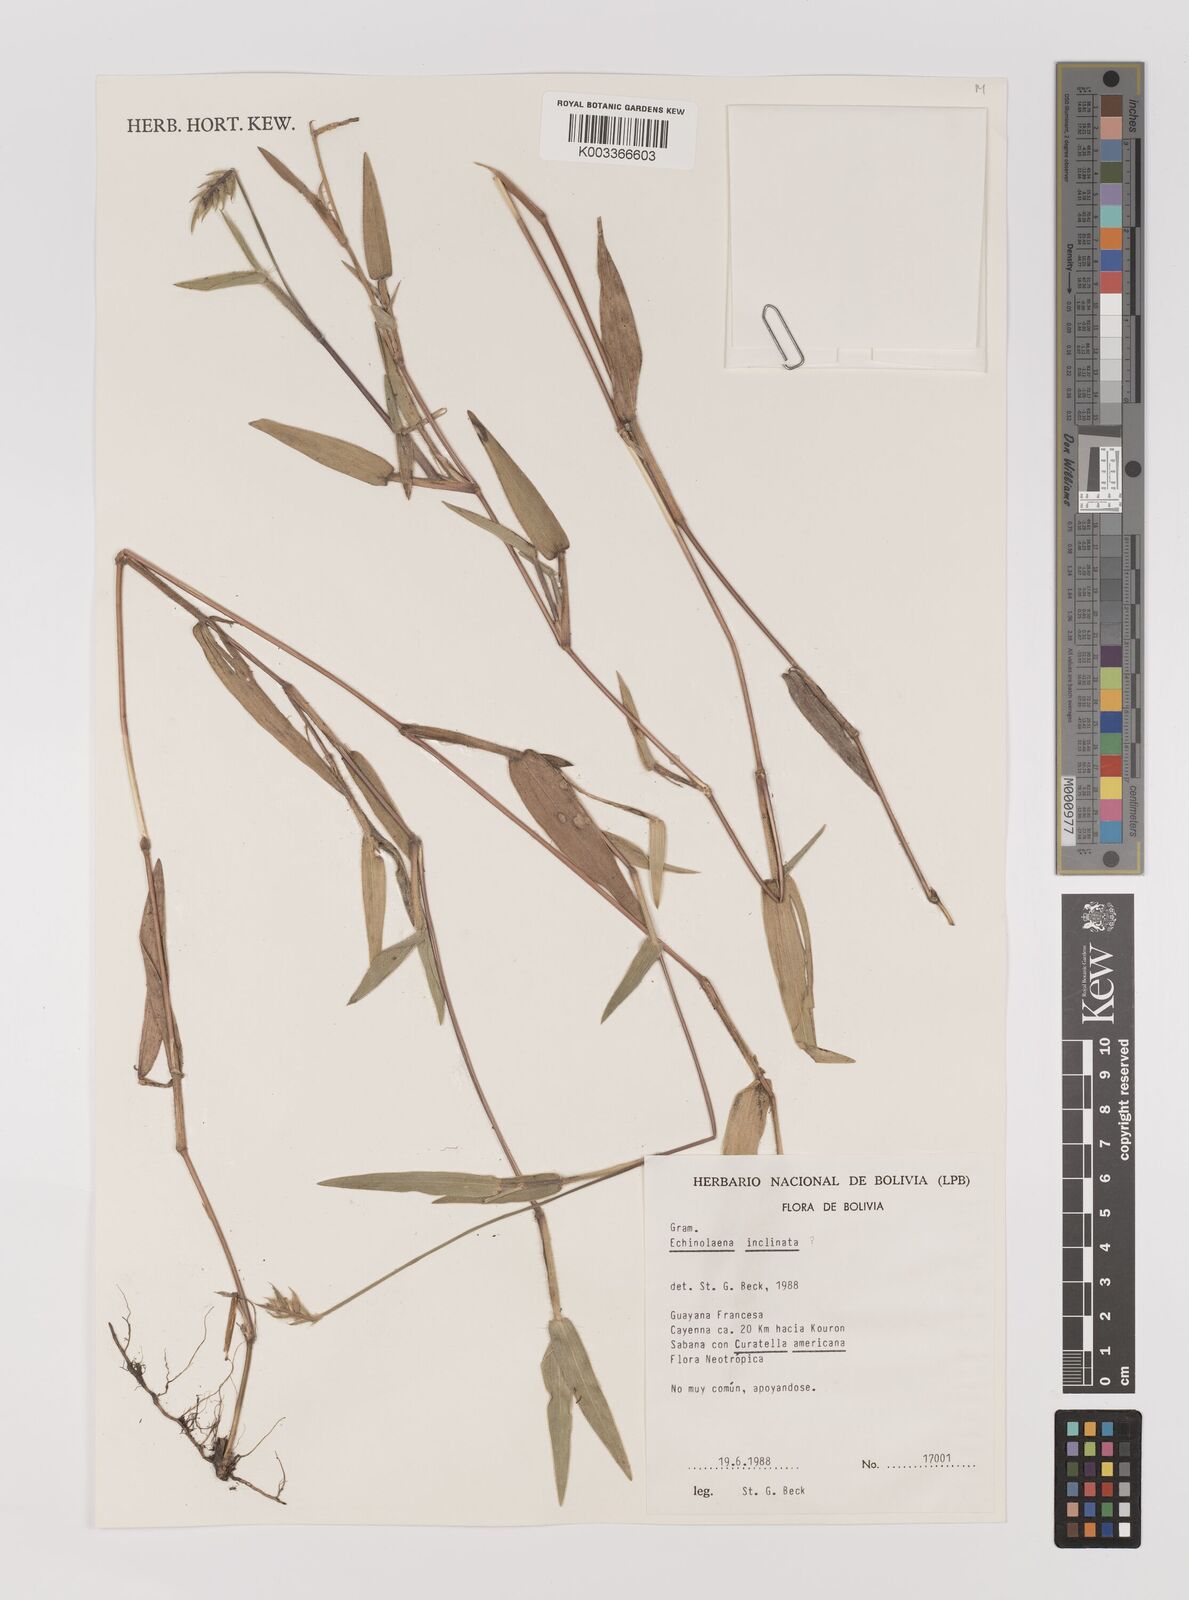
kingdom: Plantae
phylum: Tracheophyta
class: Liliopsida
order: Poales
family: Poaceae
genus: Echinolaena
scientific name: Echinolaena inflexa
